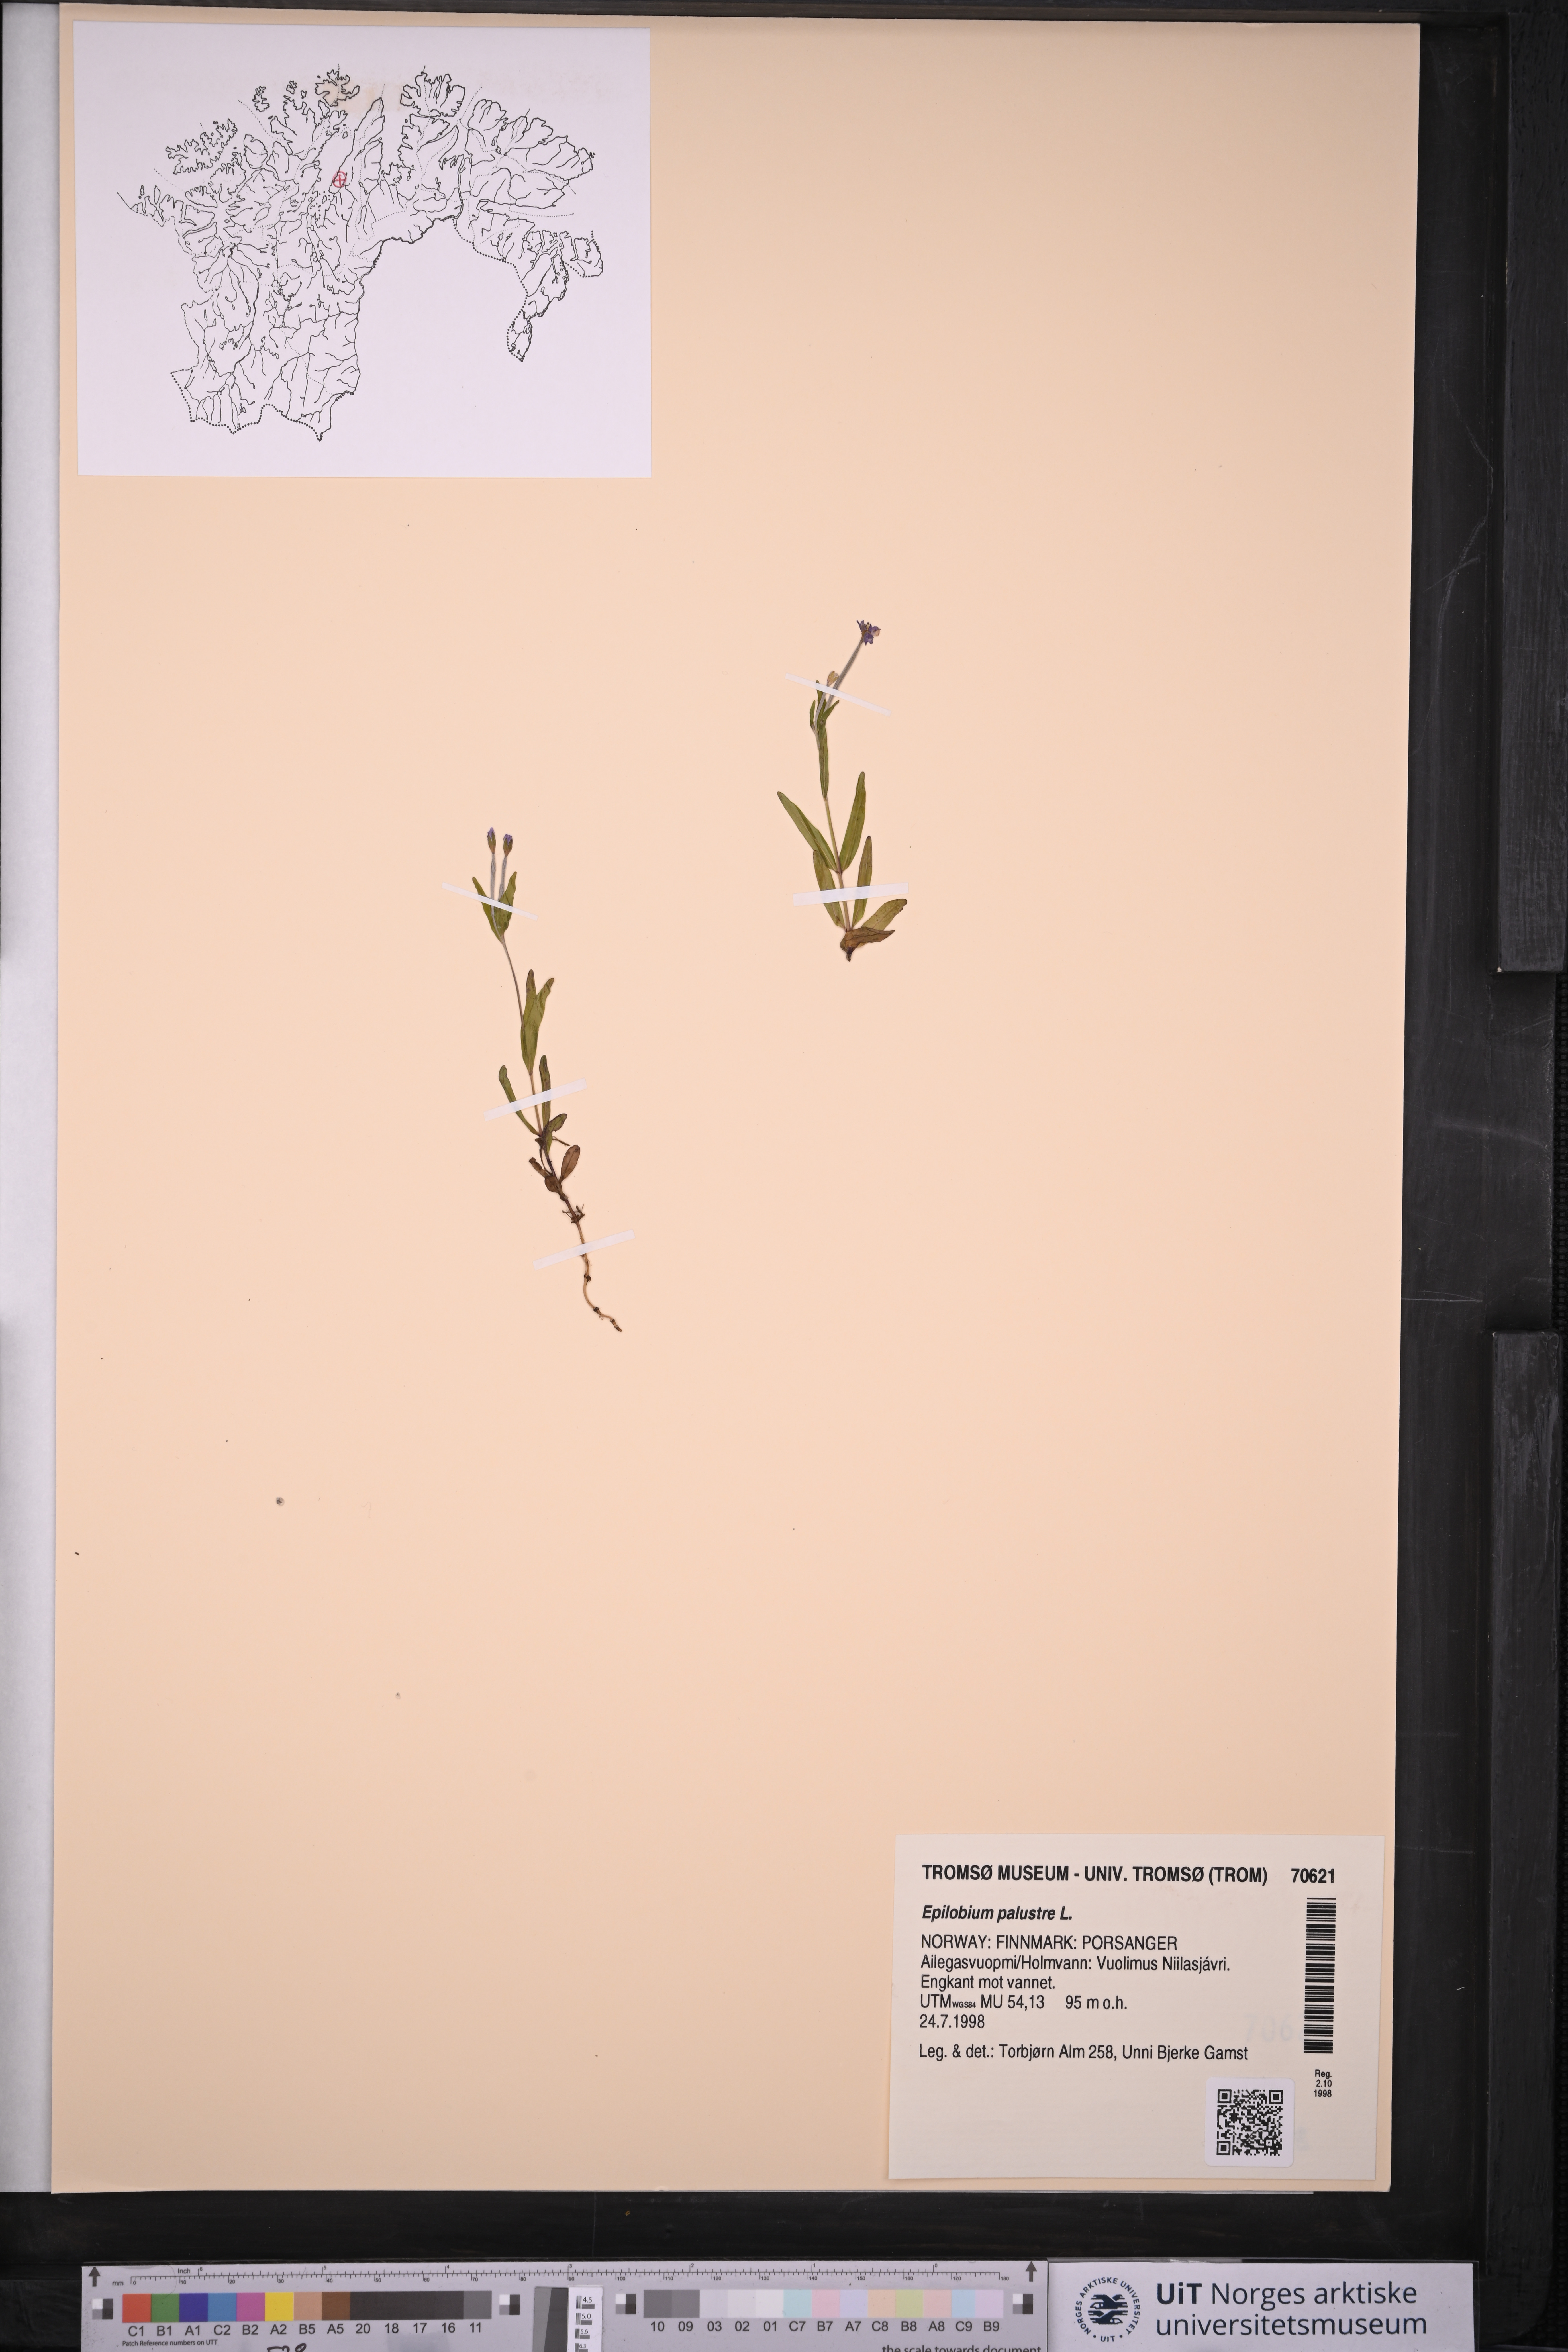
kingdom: Plantae
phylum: Tracheophyta
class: Magnoliopsida
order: Myrtales
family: Onagraceae
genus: Epilobium
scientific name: Epilobium palustre
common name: Marsh willowherb
